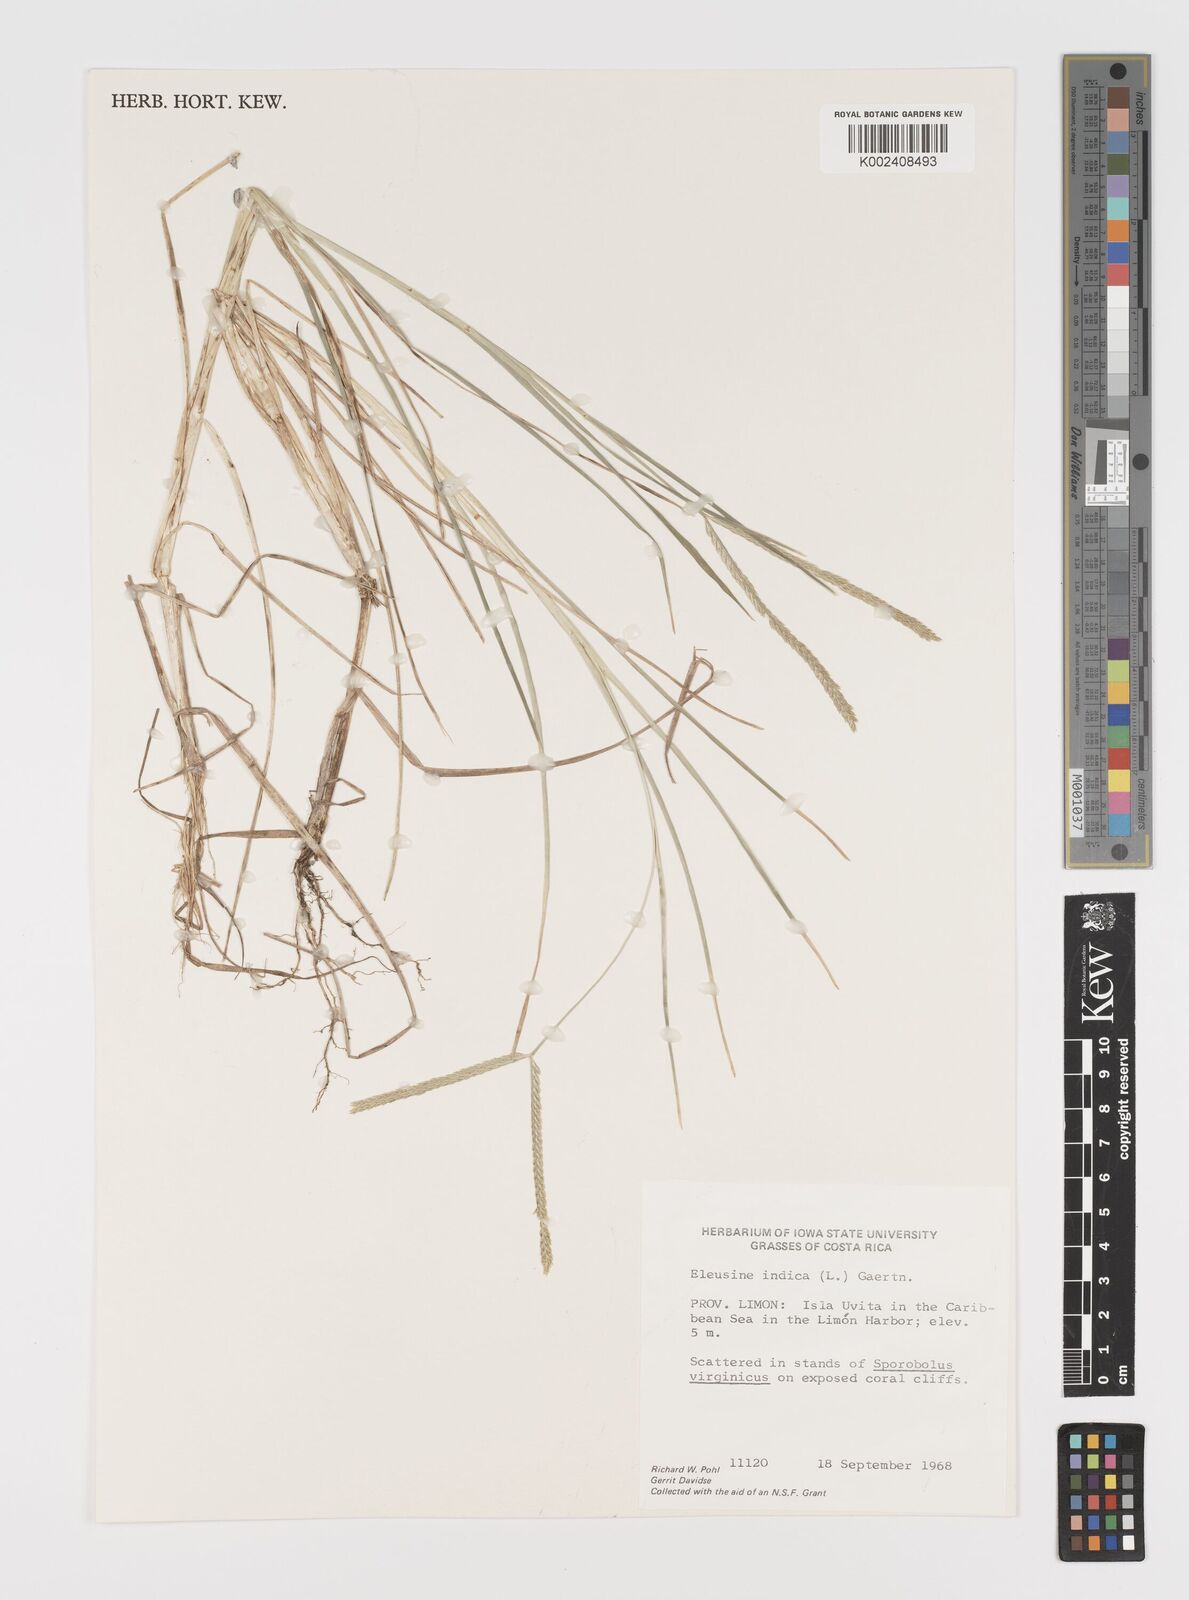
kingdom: Plantae
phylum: Tracheophyta
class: Liliopsida
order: Poales
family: Poaceae
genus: Eleusine
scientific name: Eleusine indica
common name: Yard-grass
